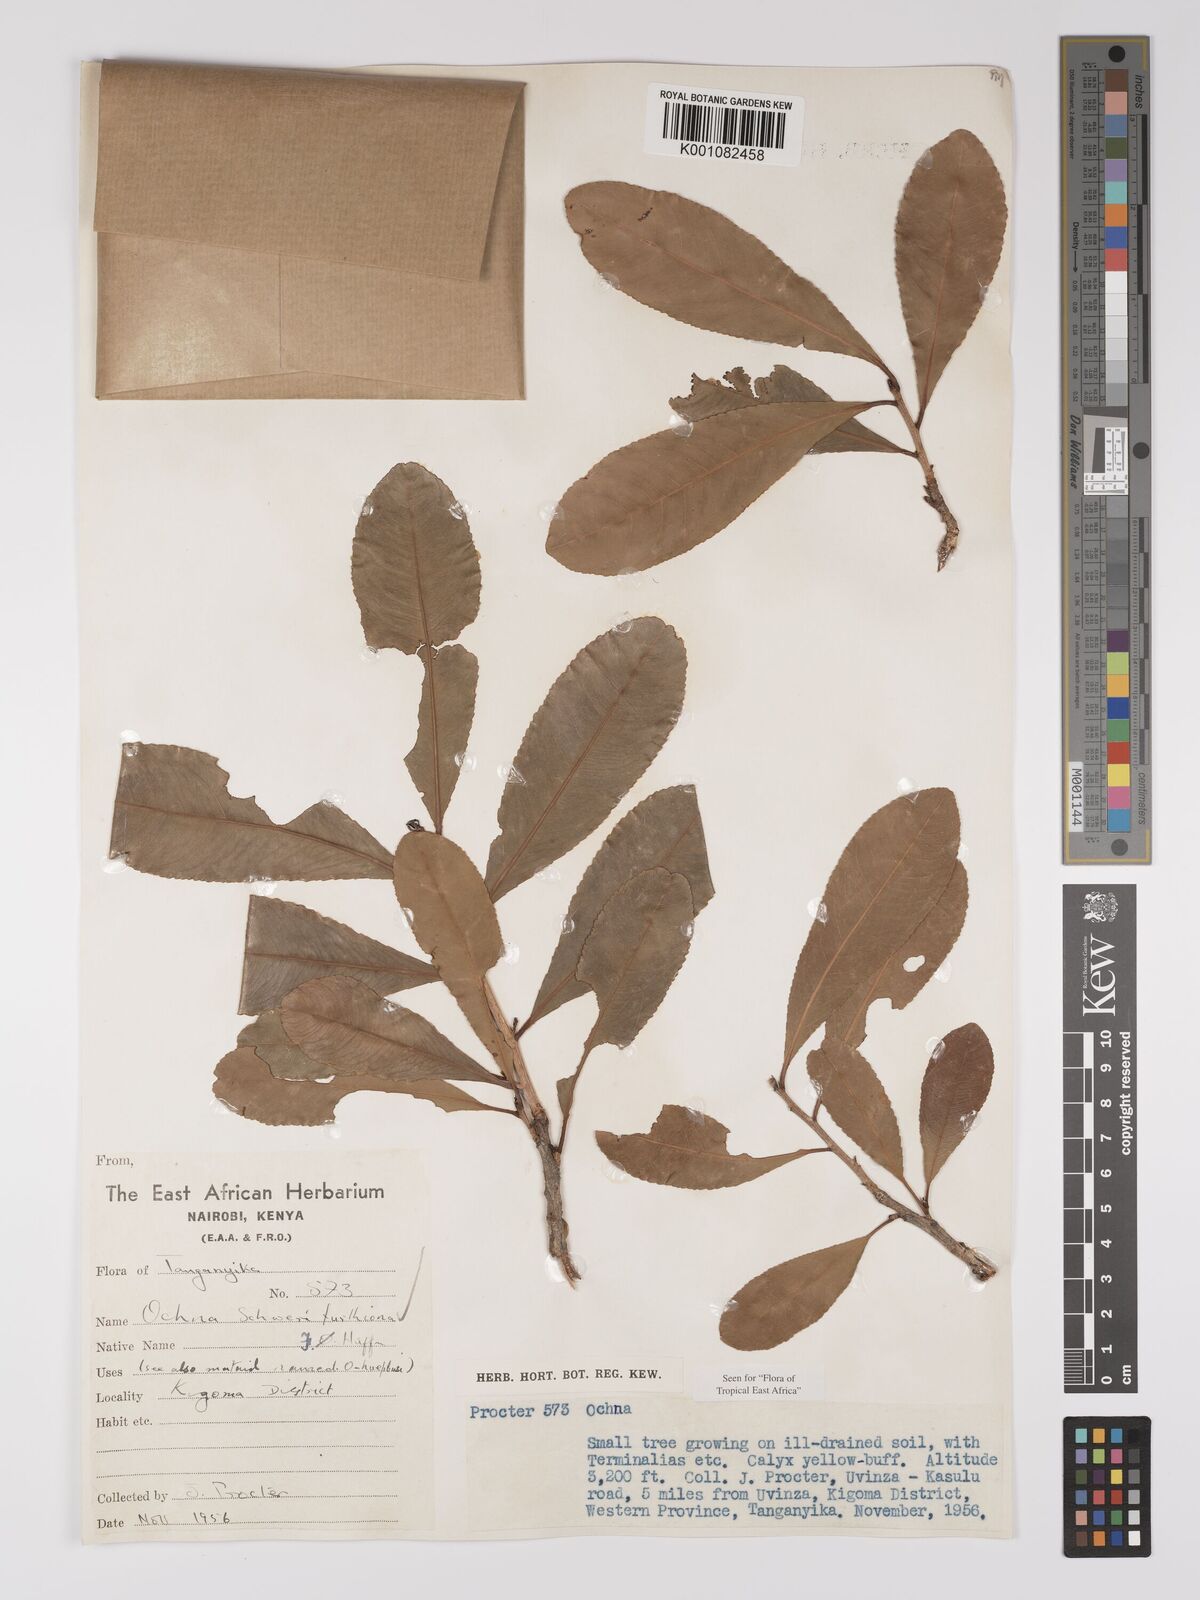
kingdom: Plantae
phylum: Tracheophyta
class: Magnoliopsida
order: Malpighiales
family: Ochnaceae
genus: Ochna
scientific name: Ochna schweinfurthiana
